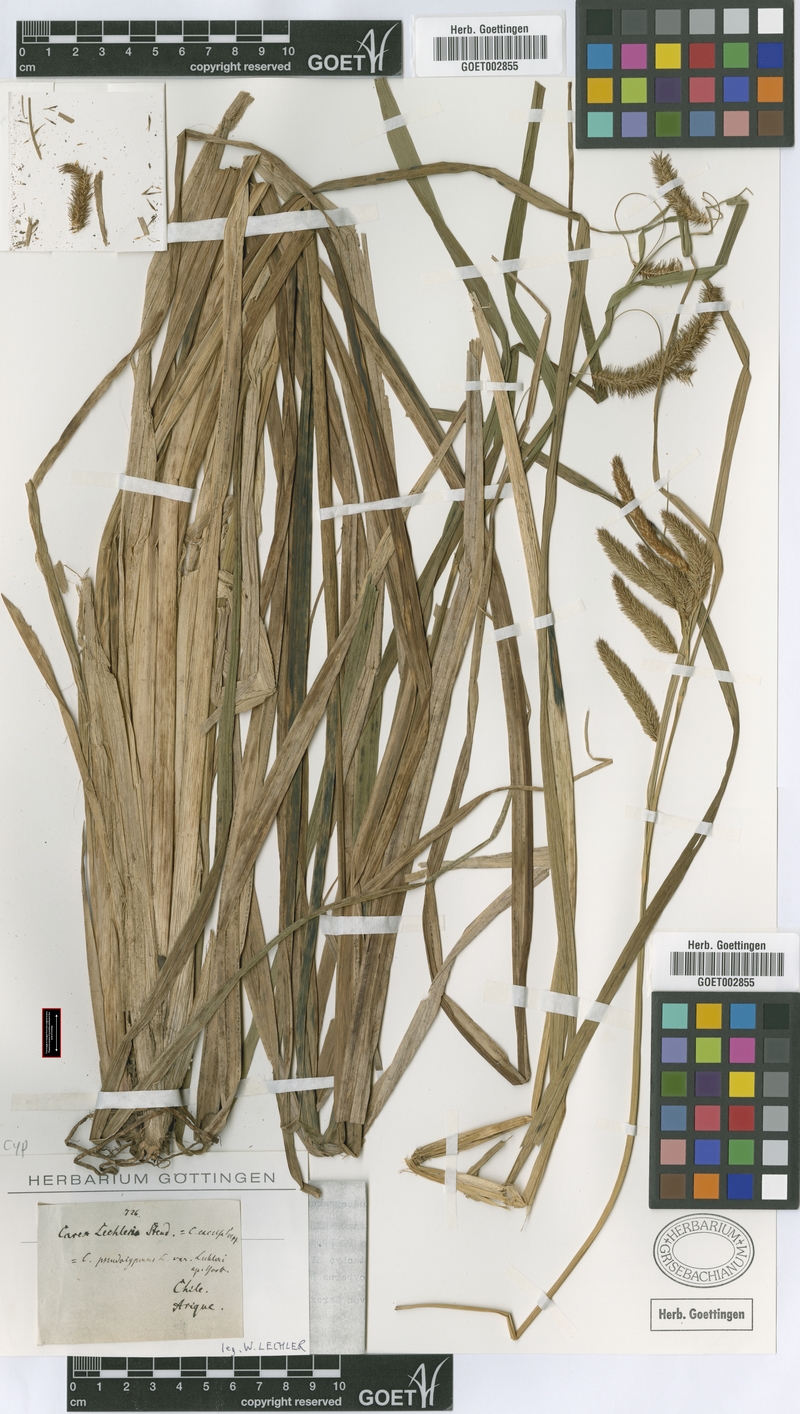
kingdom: Plantae
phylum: Tracheophyta
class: Liliopsida
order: Poales
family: Cyperaceae
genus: Carex
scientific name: Carex pseudocyperus
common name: Cyperus sedge
